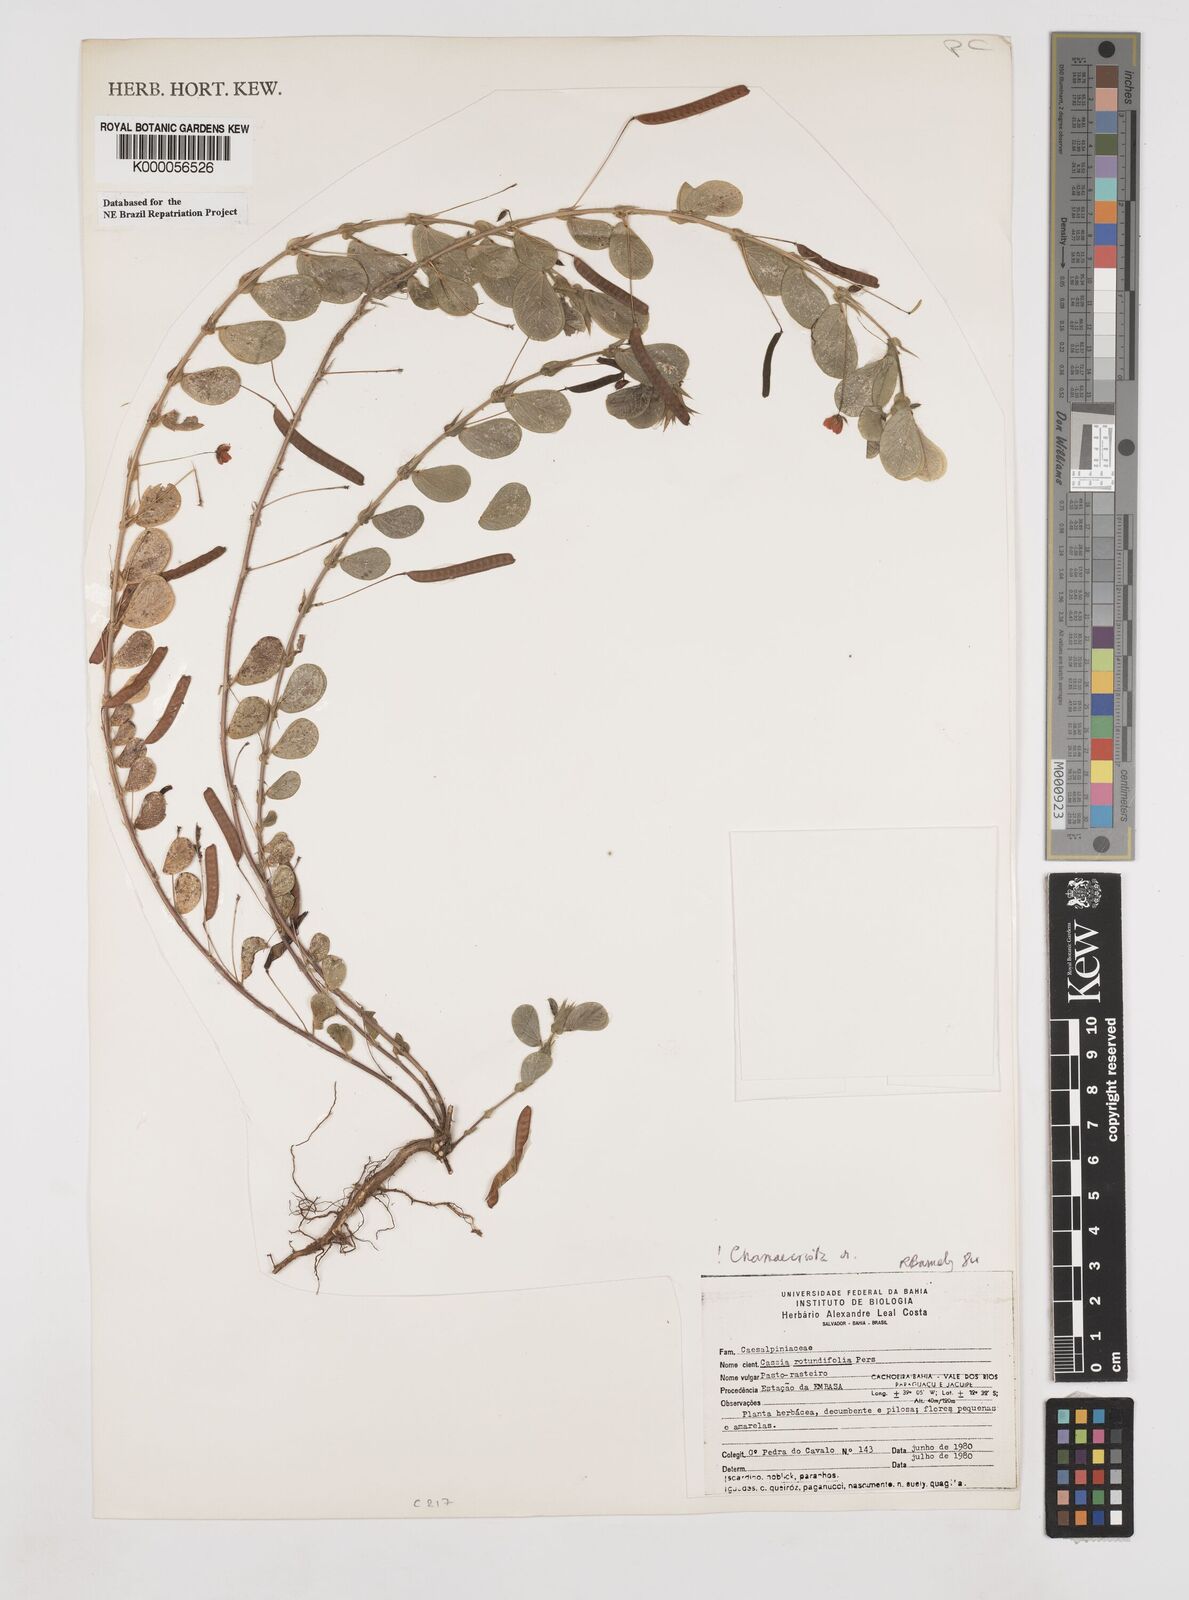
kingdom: Plantae
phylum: Tracheophyta
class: Magnoliopsida
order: Fabales
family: Fabaceae
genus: Chamaecrista
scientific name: Chamaecrista rotundifolia
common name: Round-leaf cassia
